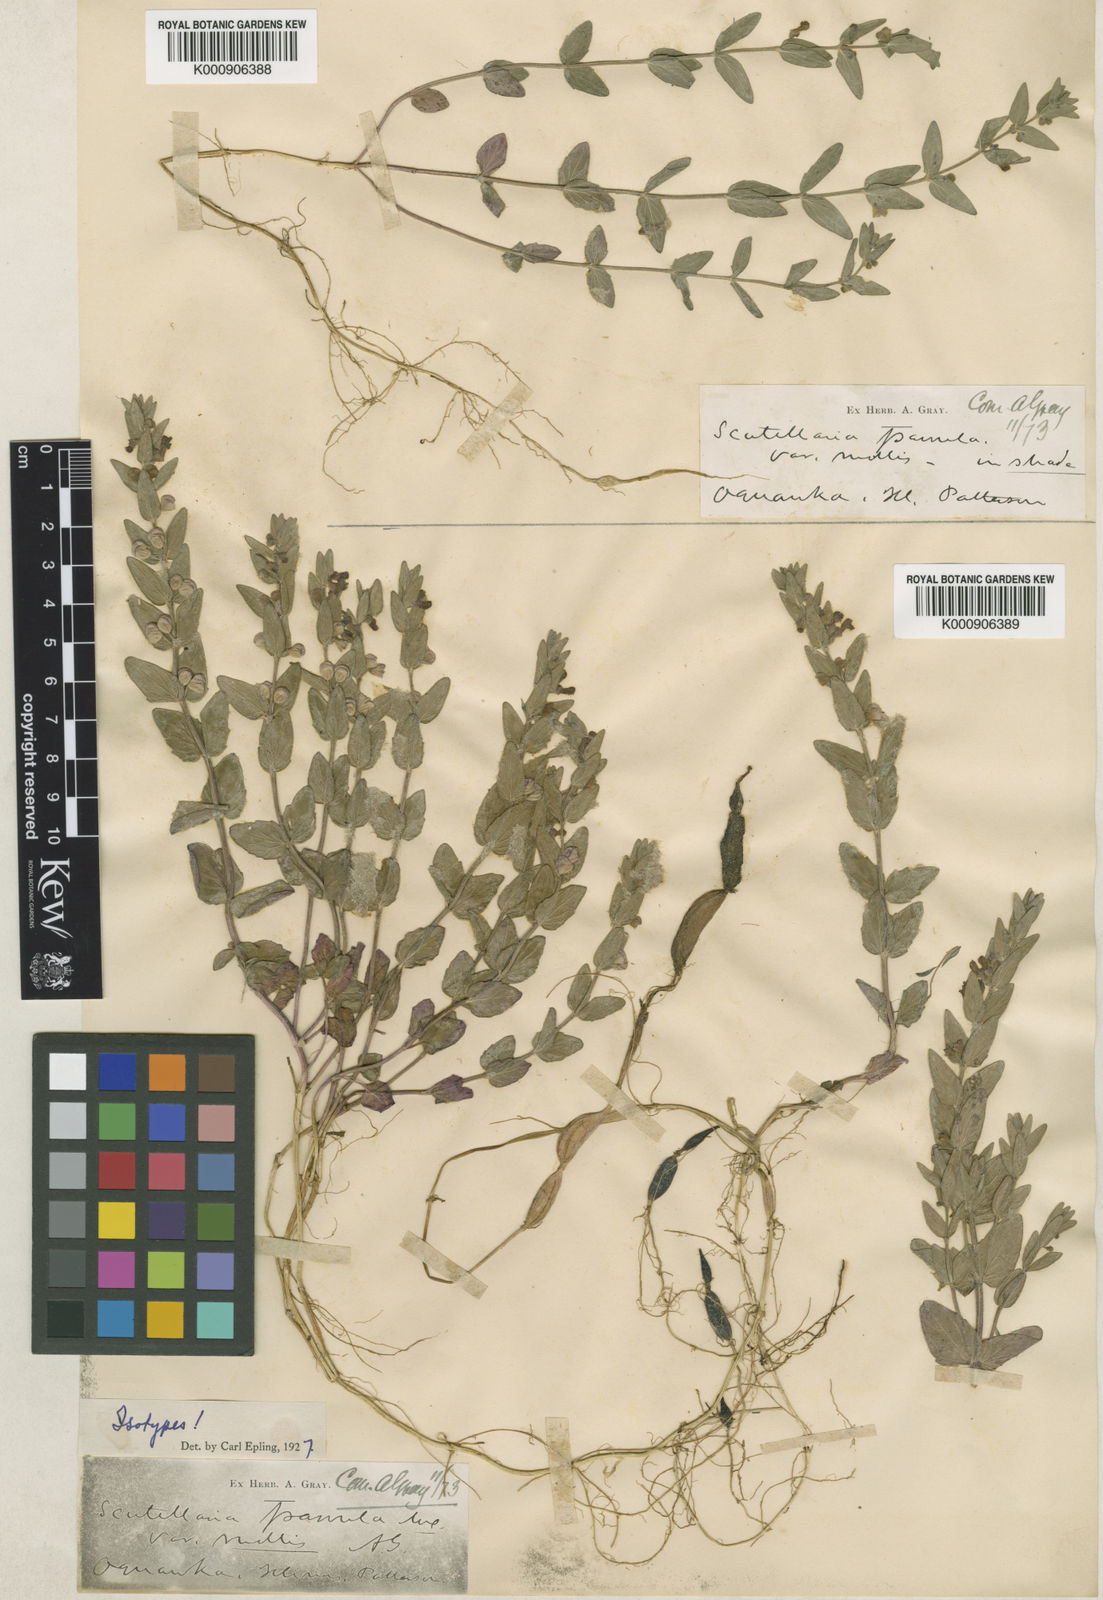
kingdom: Plantae
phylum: Tracheophyta
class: Magnoliopsida
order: Lamiales
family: Lamiaceae
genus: Scutellaria
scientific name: Scutellaria parvula
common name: Little scullcap
